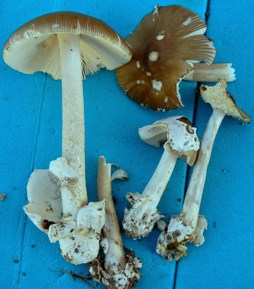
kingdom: Fungi
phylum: Basidiomycota
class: Agaricomycetes
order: Agaricales
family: Amanitaceae
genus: Amanita
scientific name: Amanita submembranacea
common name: gråspættet kam-fluesvamp
